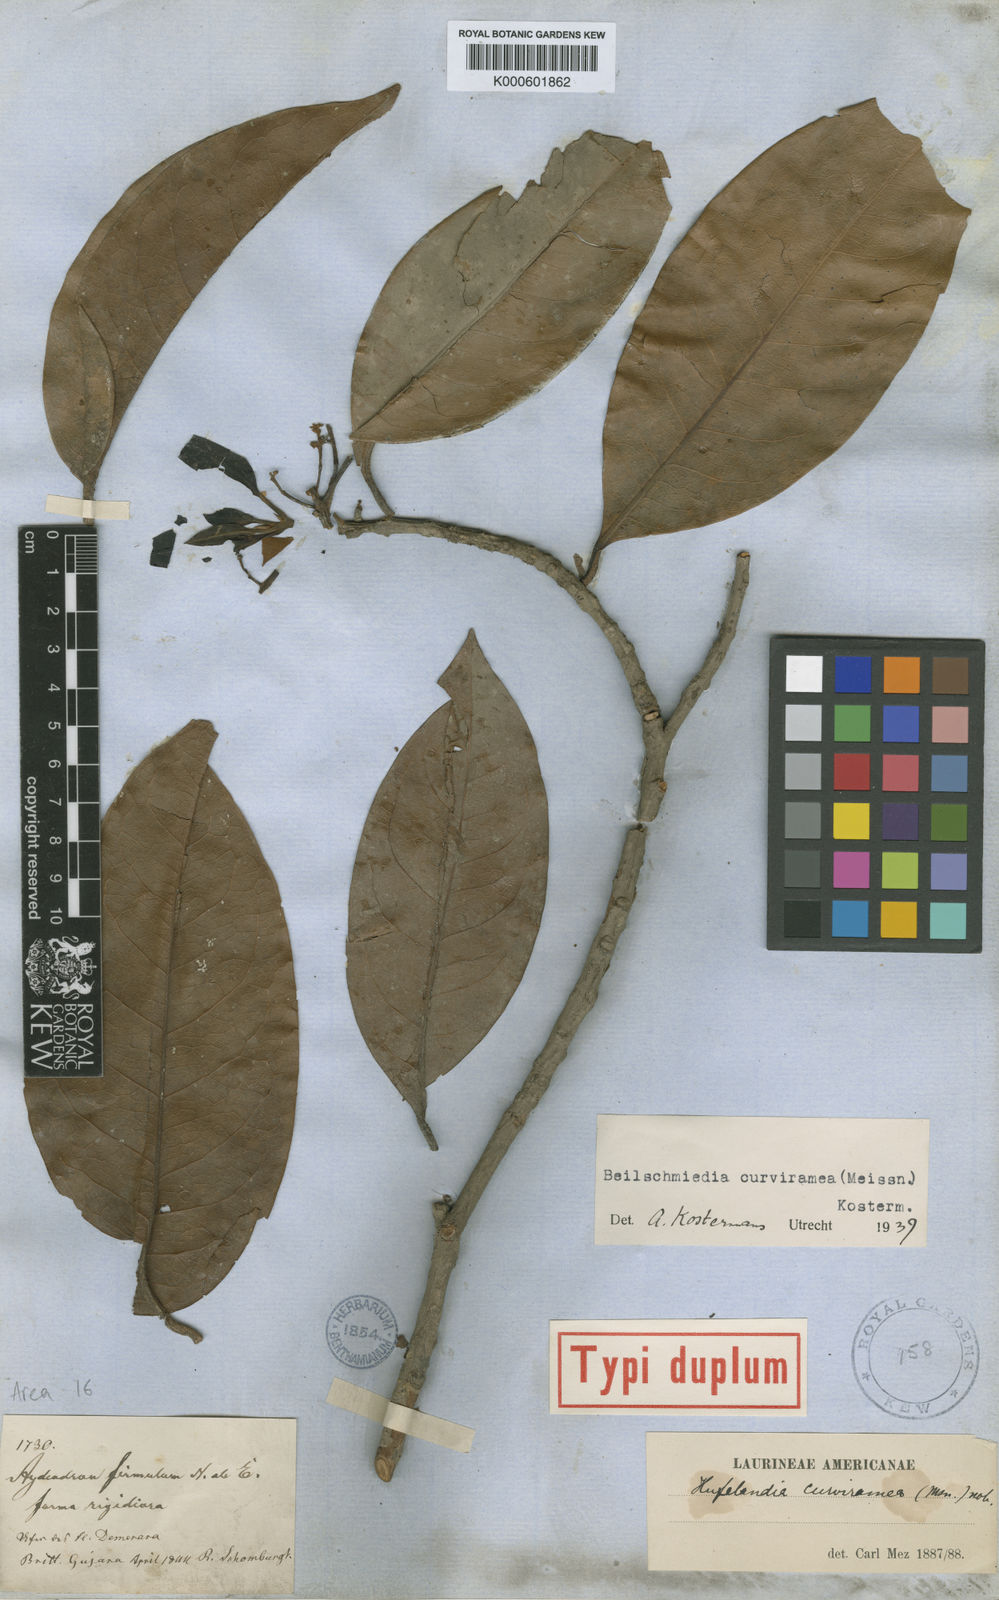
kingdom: Plantae
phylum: Tracheophyta
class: Magnoliopsida
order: Laurales
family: Lauraceae
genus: Beilschmiedia
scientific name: Beilschmiedia curviramea
